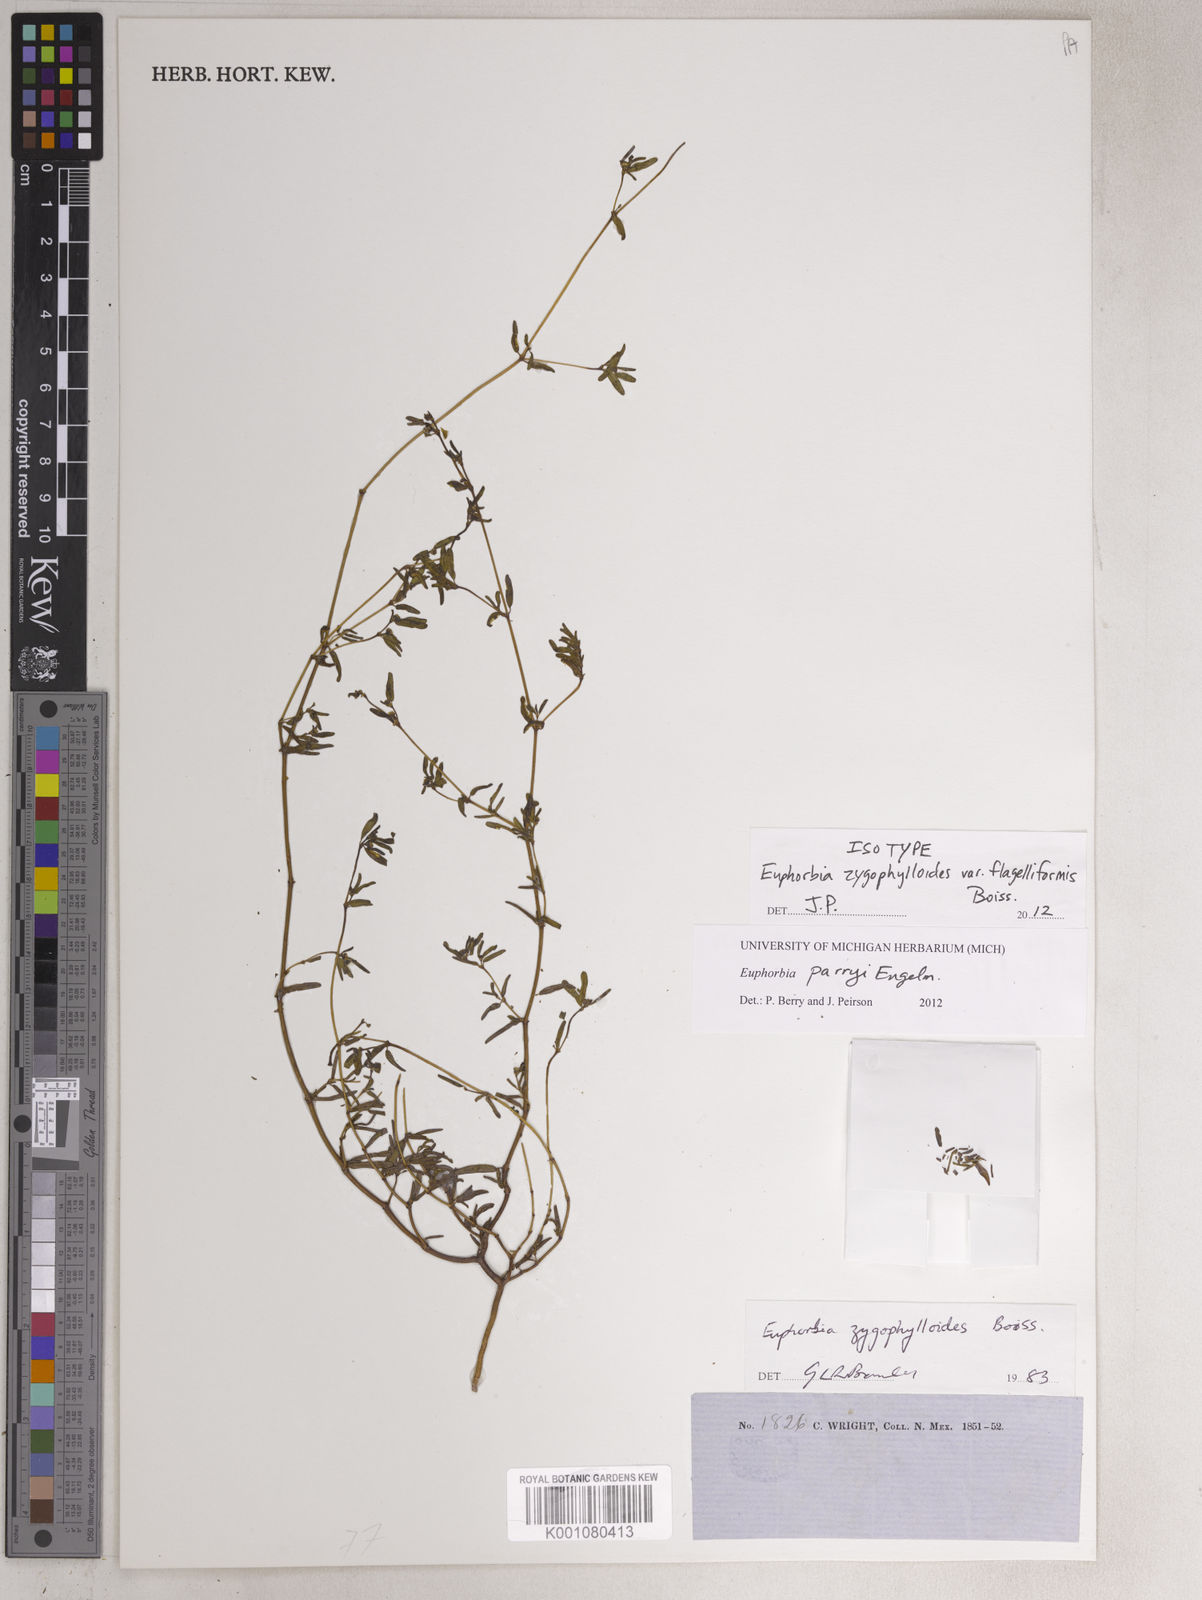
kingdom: Plantae
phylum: Tracheophyta
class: Magnoliopsida
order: Malpighiales
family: Euphorbiaceae
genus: Euphorbia
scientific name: Euphorbia parryi
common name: Dune spurge
